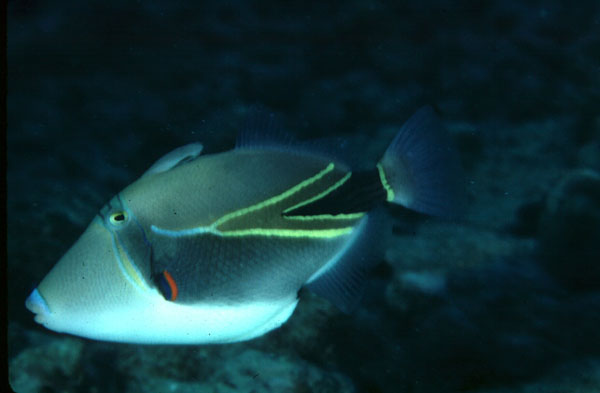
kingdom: Animalia
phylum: Chordata
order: Tetraodontiformes
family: Balistidae
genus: Rhinecanthus
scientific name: Rhinecanthus rectangulus
